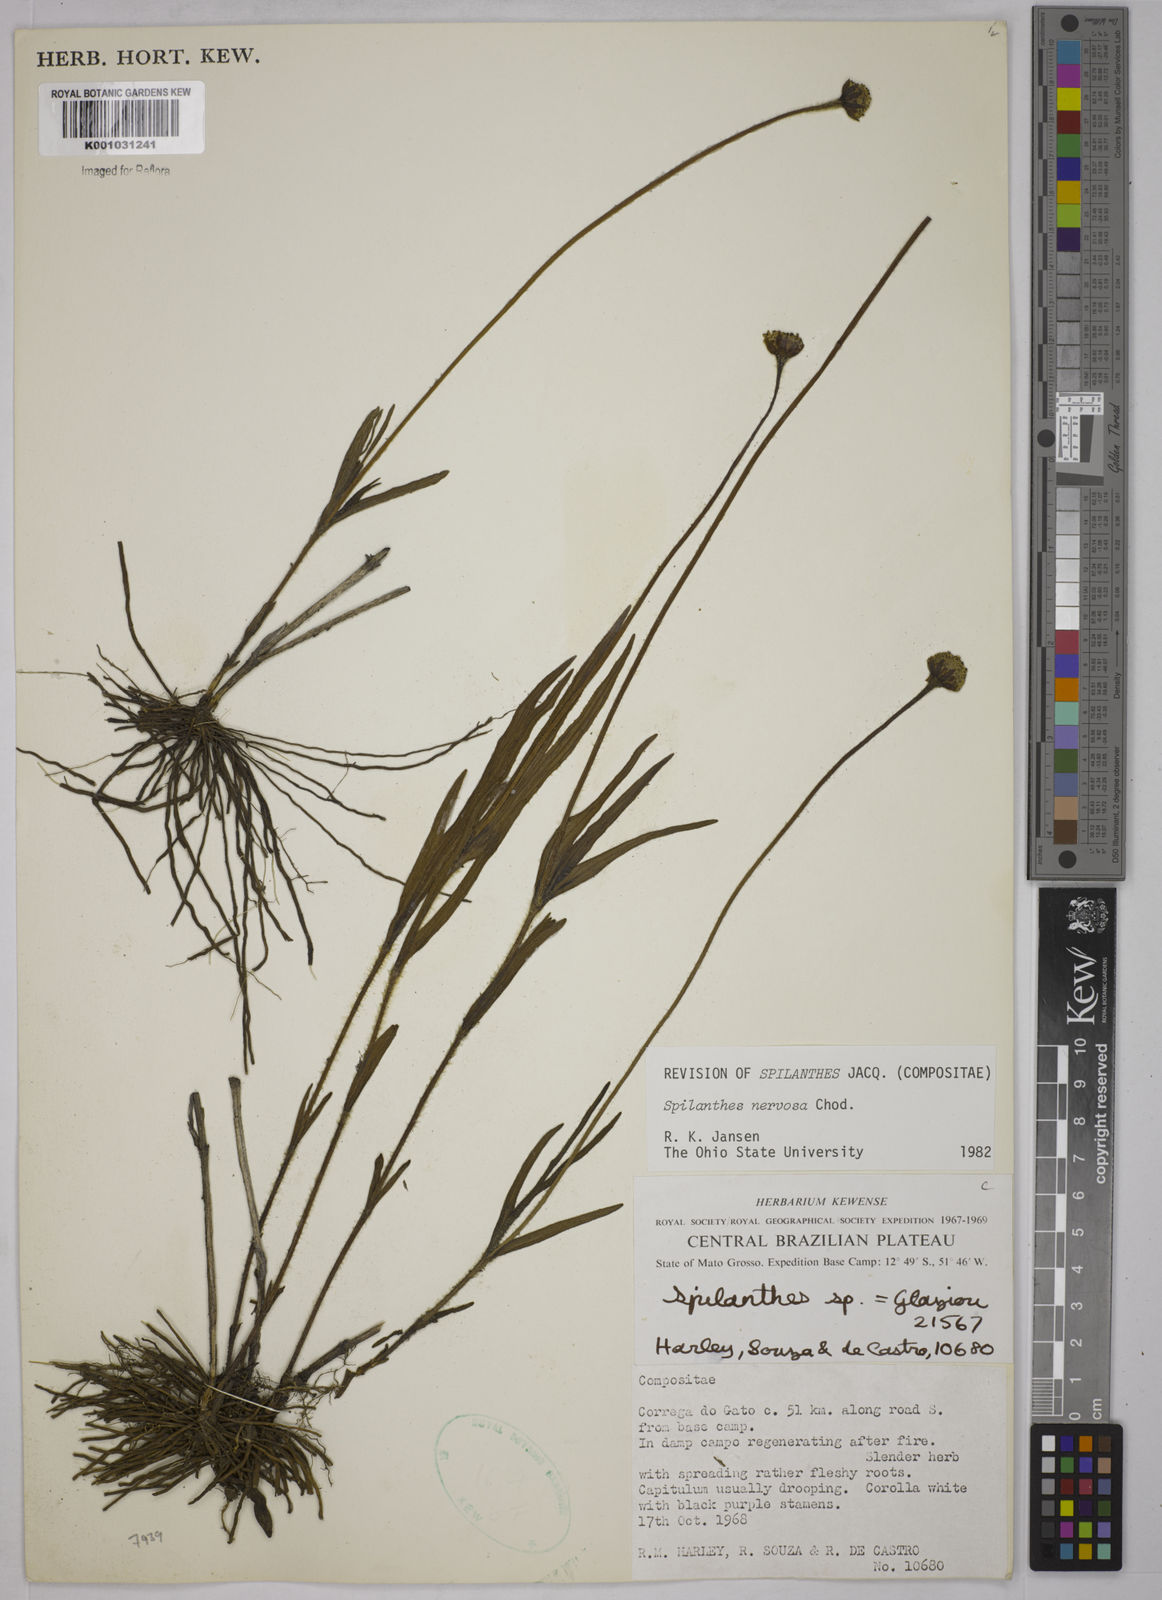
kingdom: Plantae
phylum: Tracheophyta
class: Magnoliopsida
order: Asterales
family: Asteraceae
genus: Spilanthes
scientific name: Spilanthes nervosa
